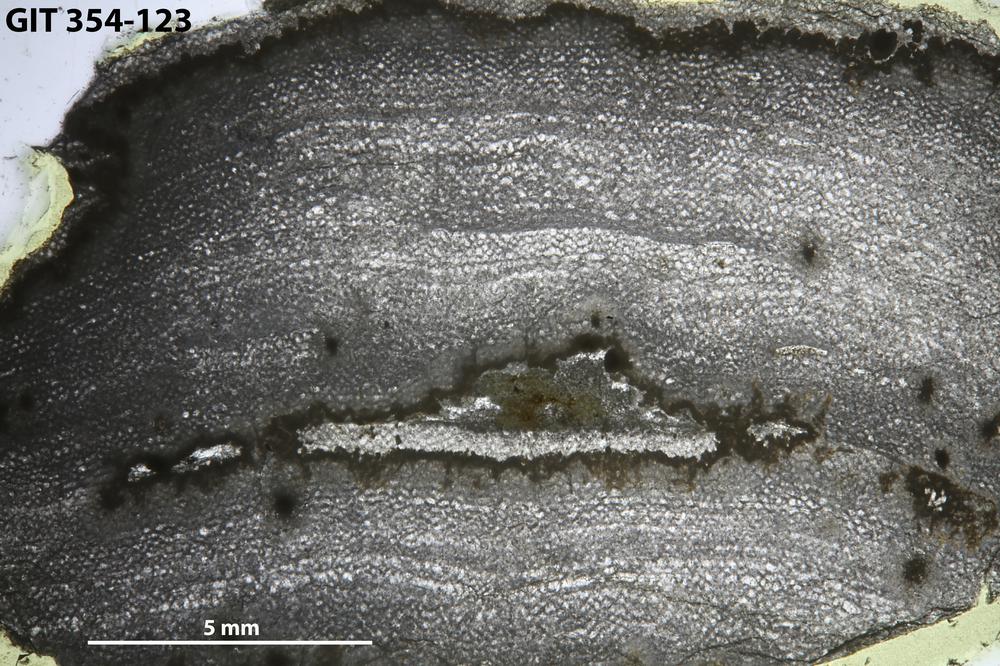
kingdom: Animalia
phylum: Porifera
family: Ecclimadictyidae
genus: Ecclimadictyon
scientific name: Ecclimadictyon microfastigiatum
